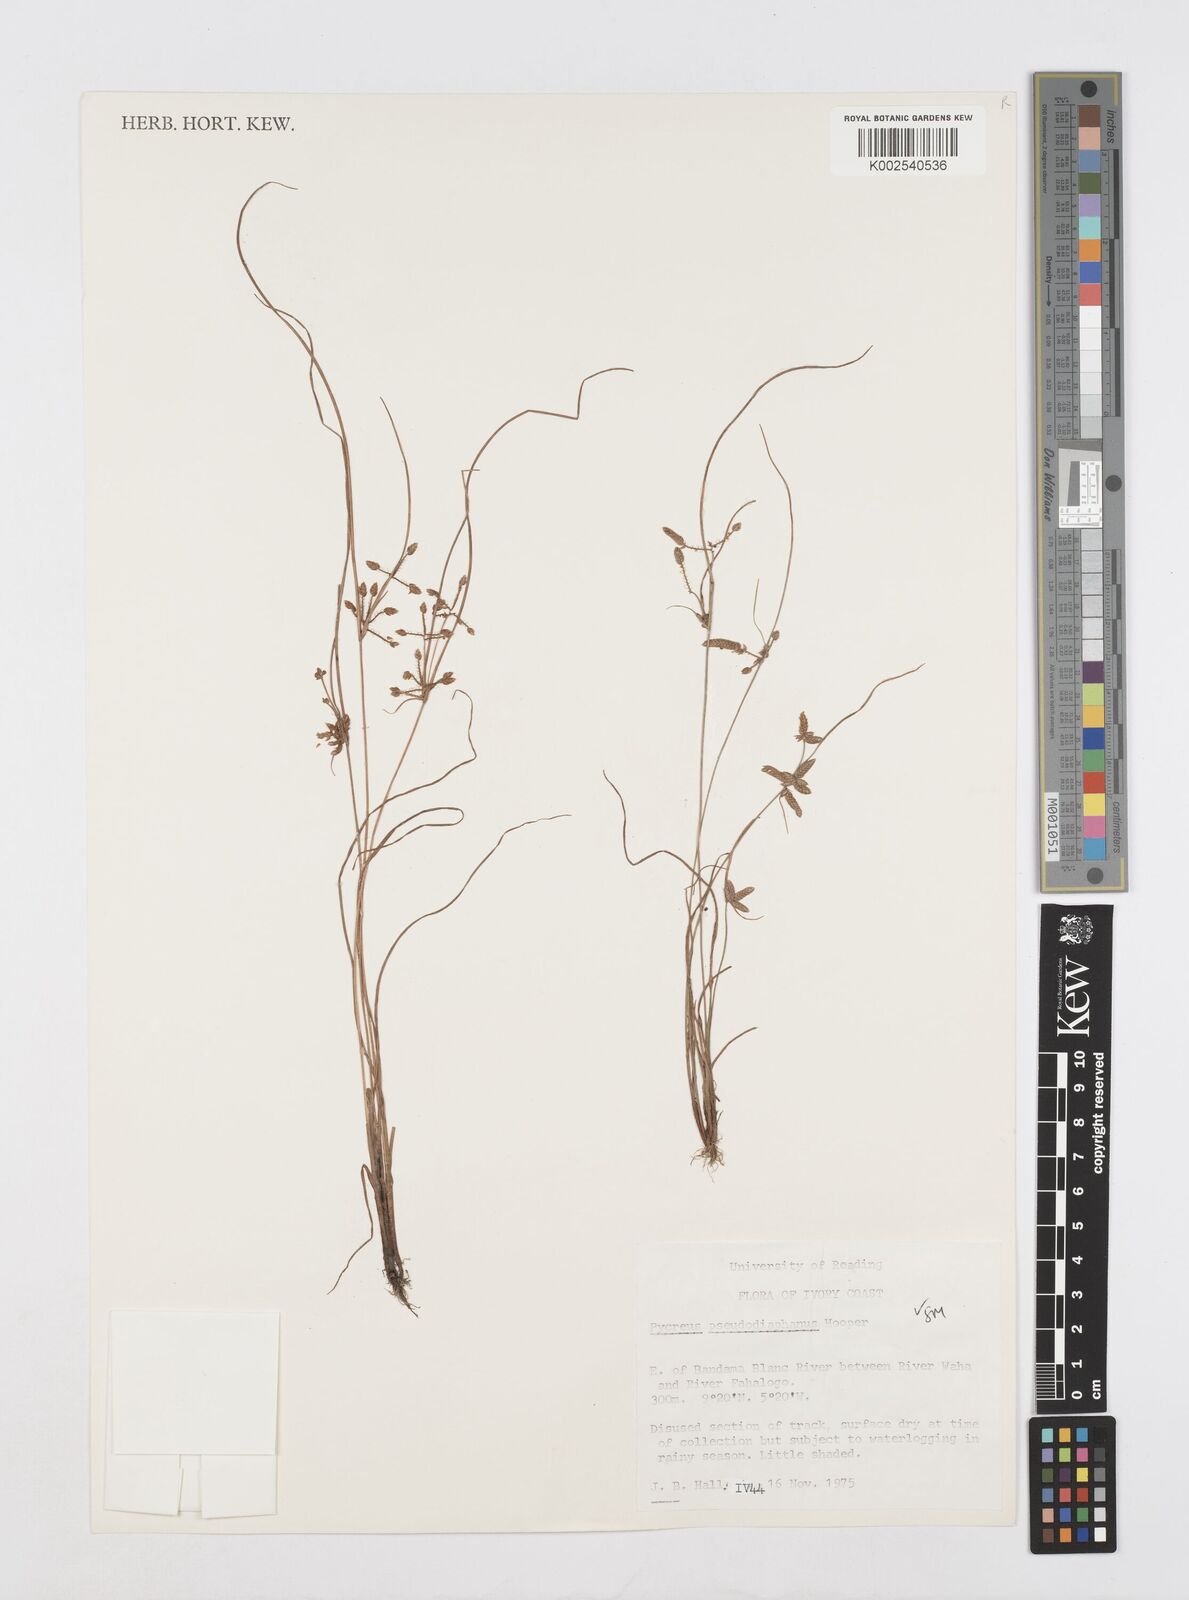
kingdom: Plantae
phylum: Tracheophyta
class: Liliopsida
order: Poales
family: Cyperaceae
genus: Cyperus
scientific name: Cyperus pseudodiaphanus
